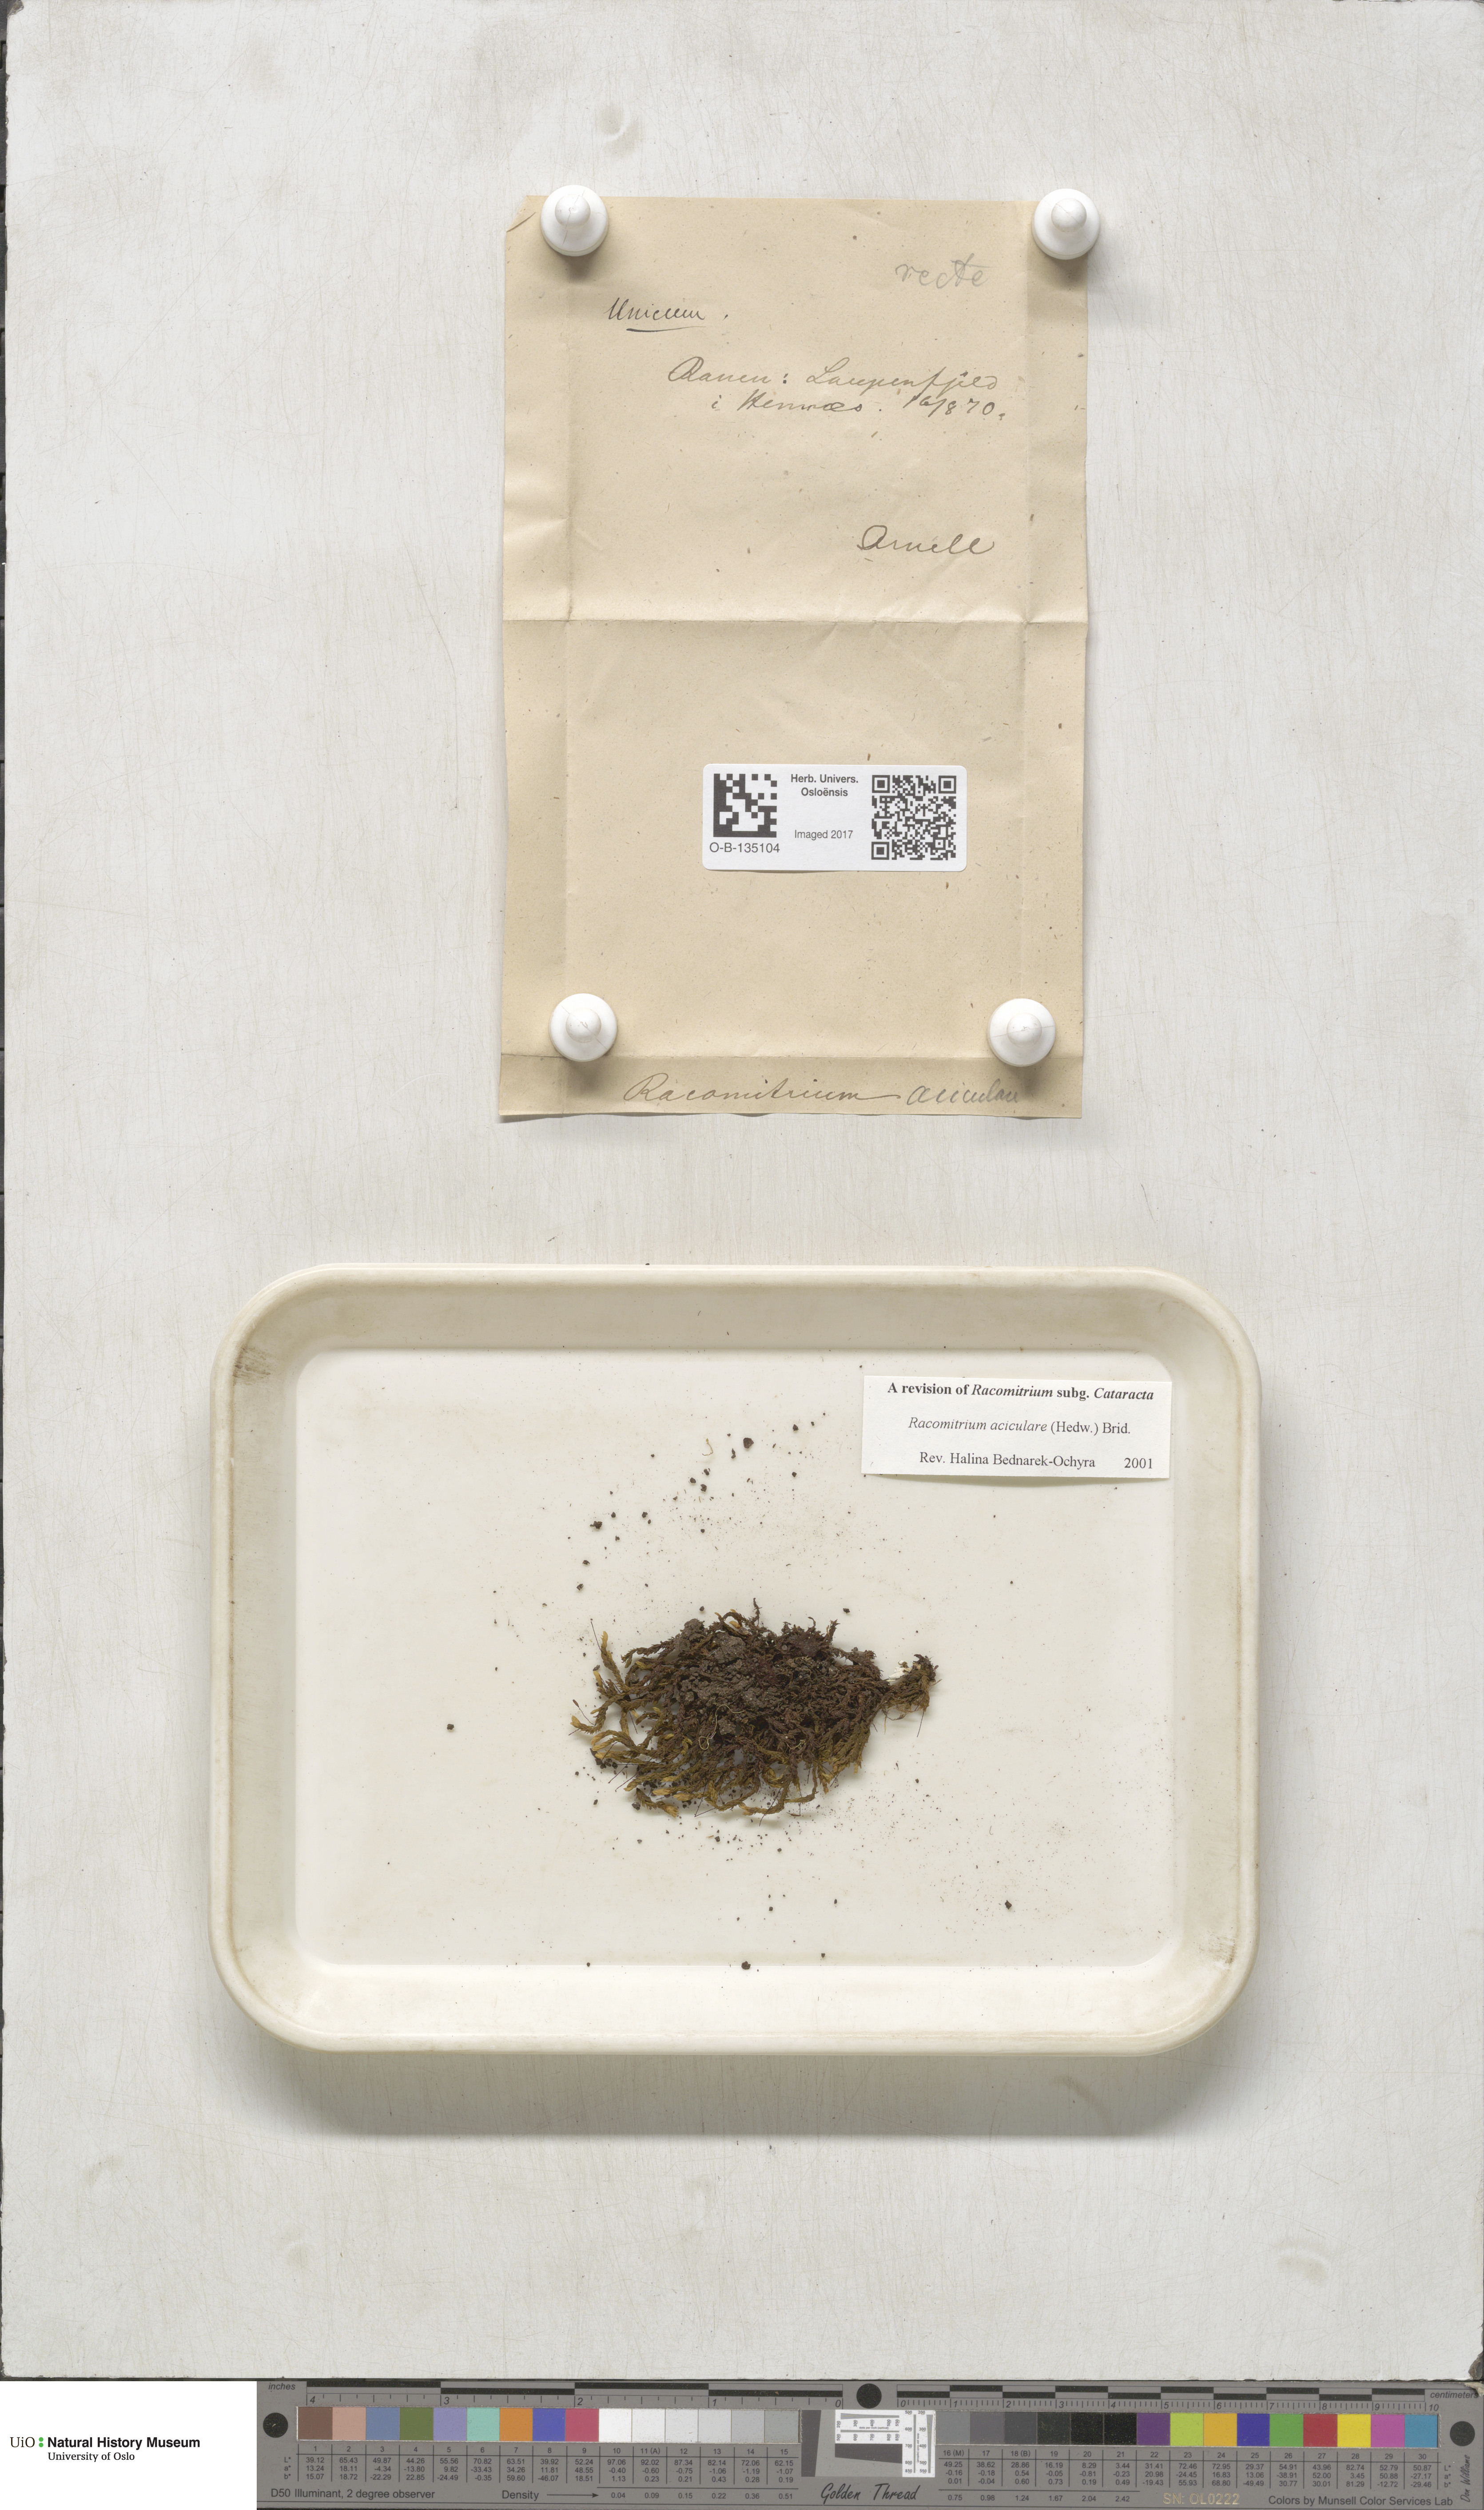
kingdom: Plantae
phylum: Bryophyta
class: Bryopsida
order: Grimmiales
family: Grimmiaceae
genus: Codriophorus
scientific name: Codriophorus acicularis
